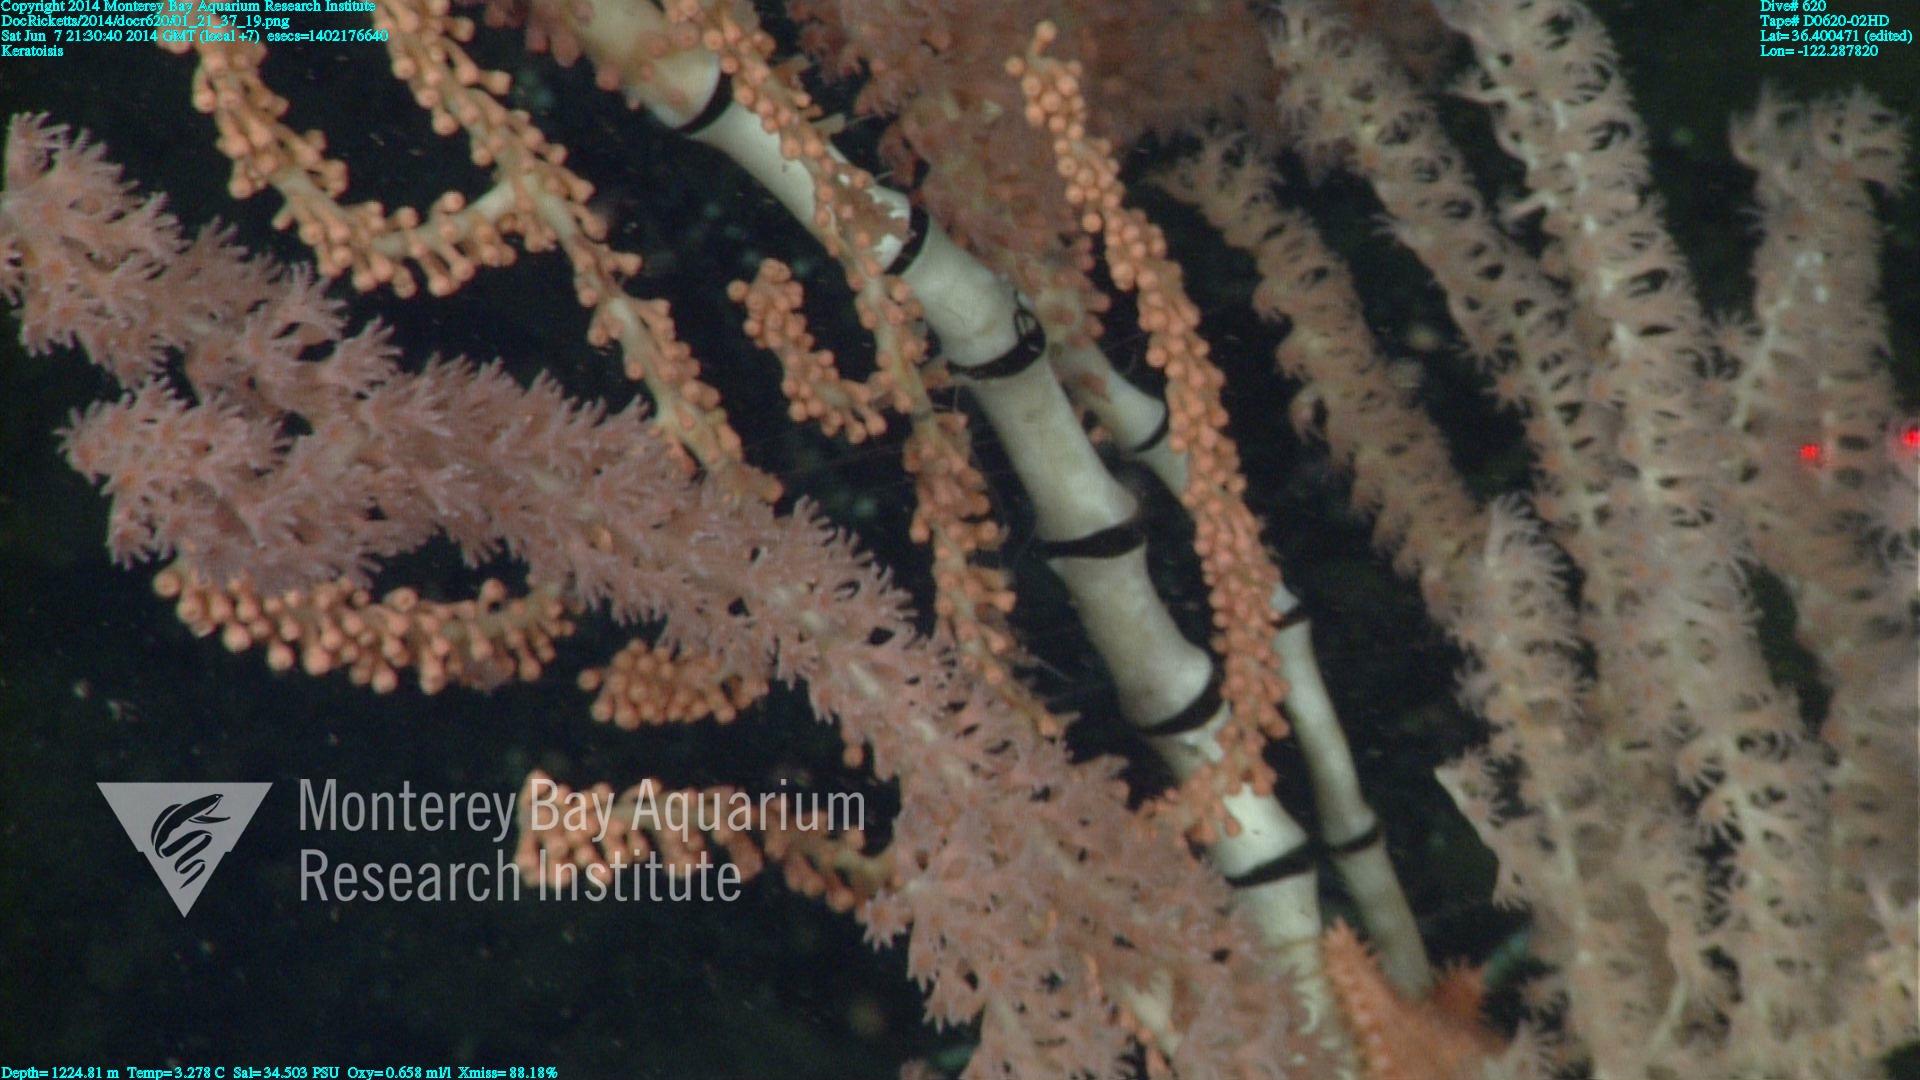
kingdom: Animalia
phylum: Cnidaria
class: Anthozoa
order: Scleralcyonacea
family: Keratoisididae
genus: Keratoisis
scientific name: Keratoisis
